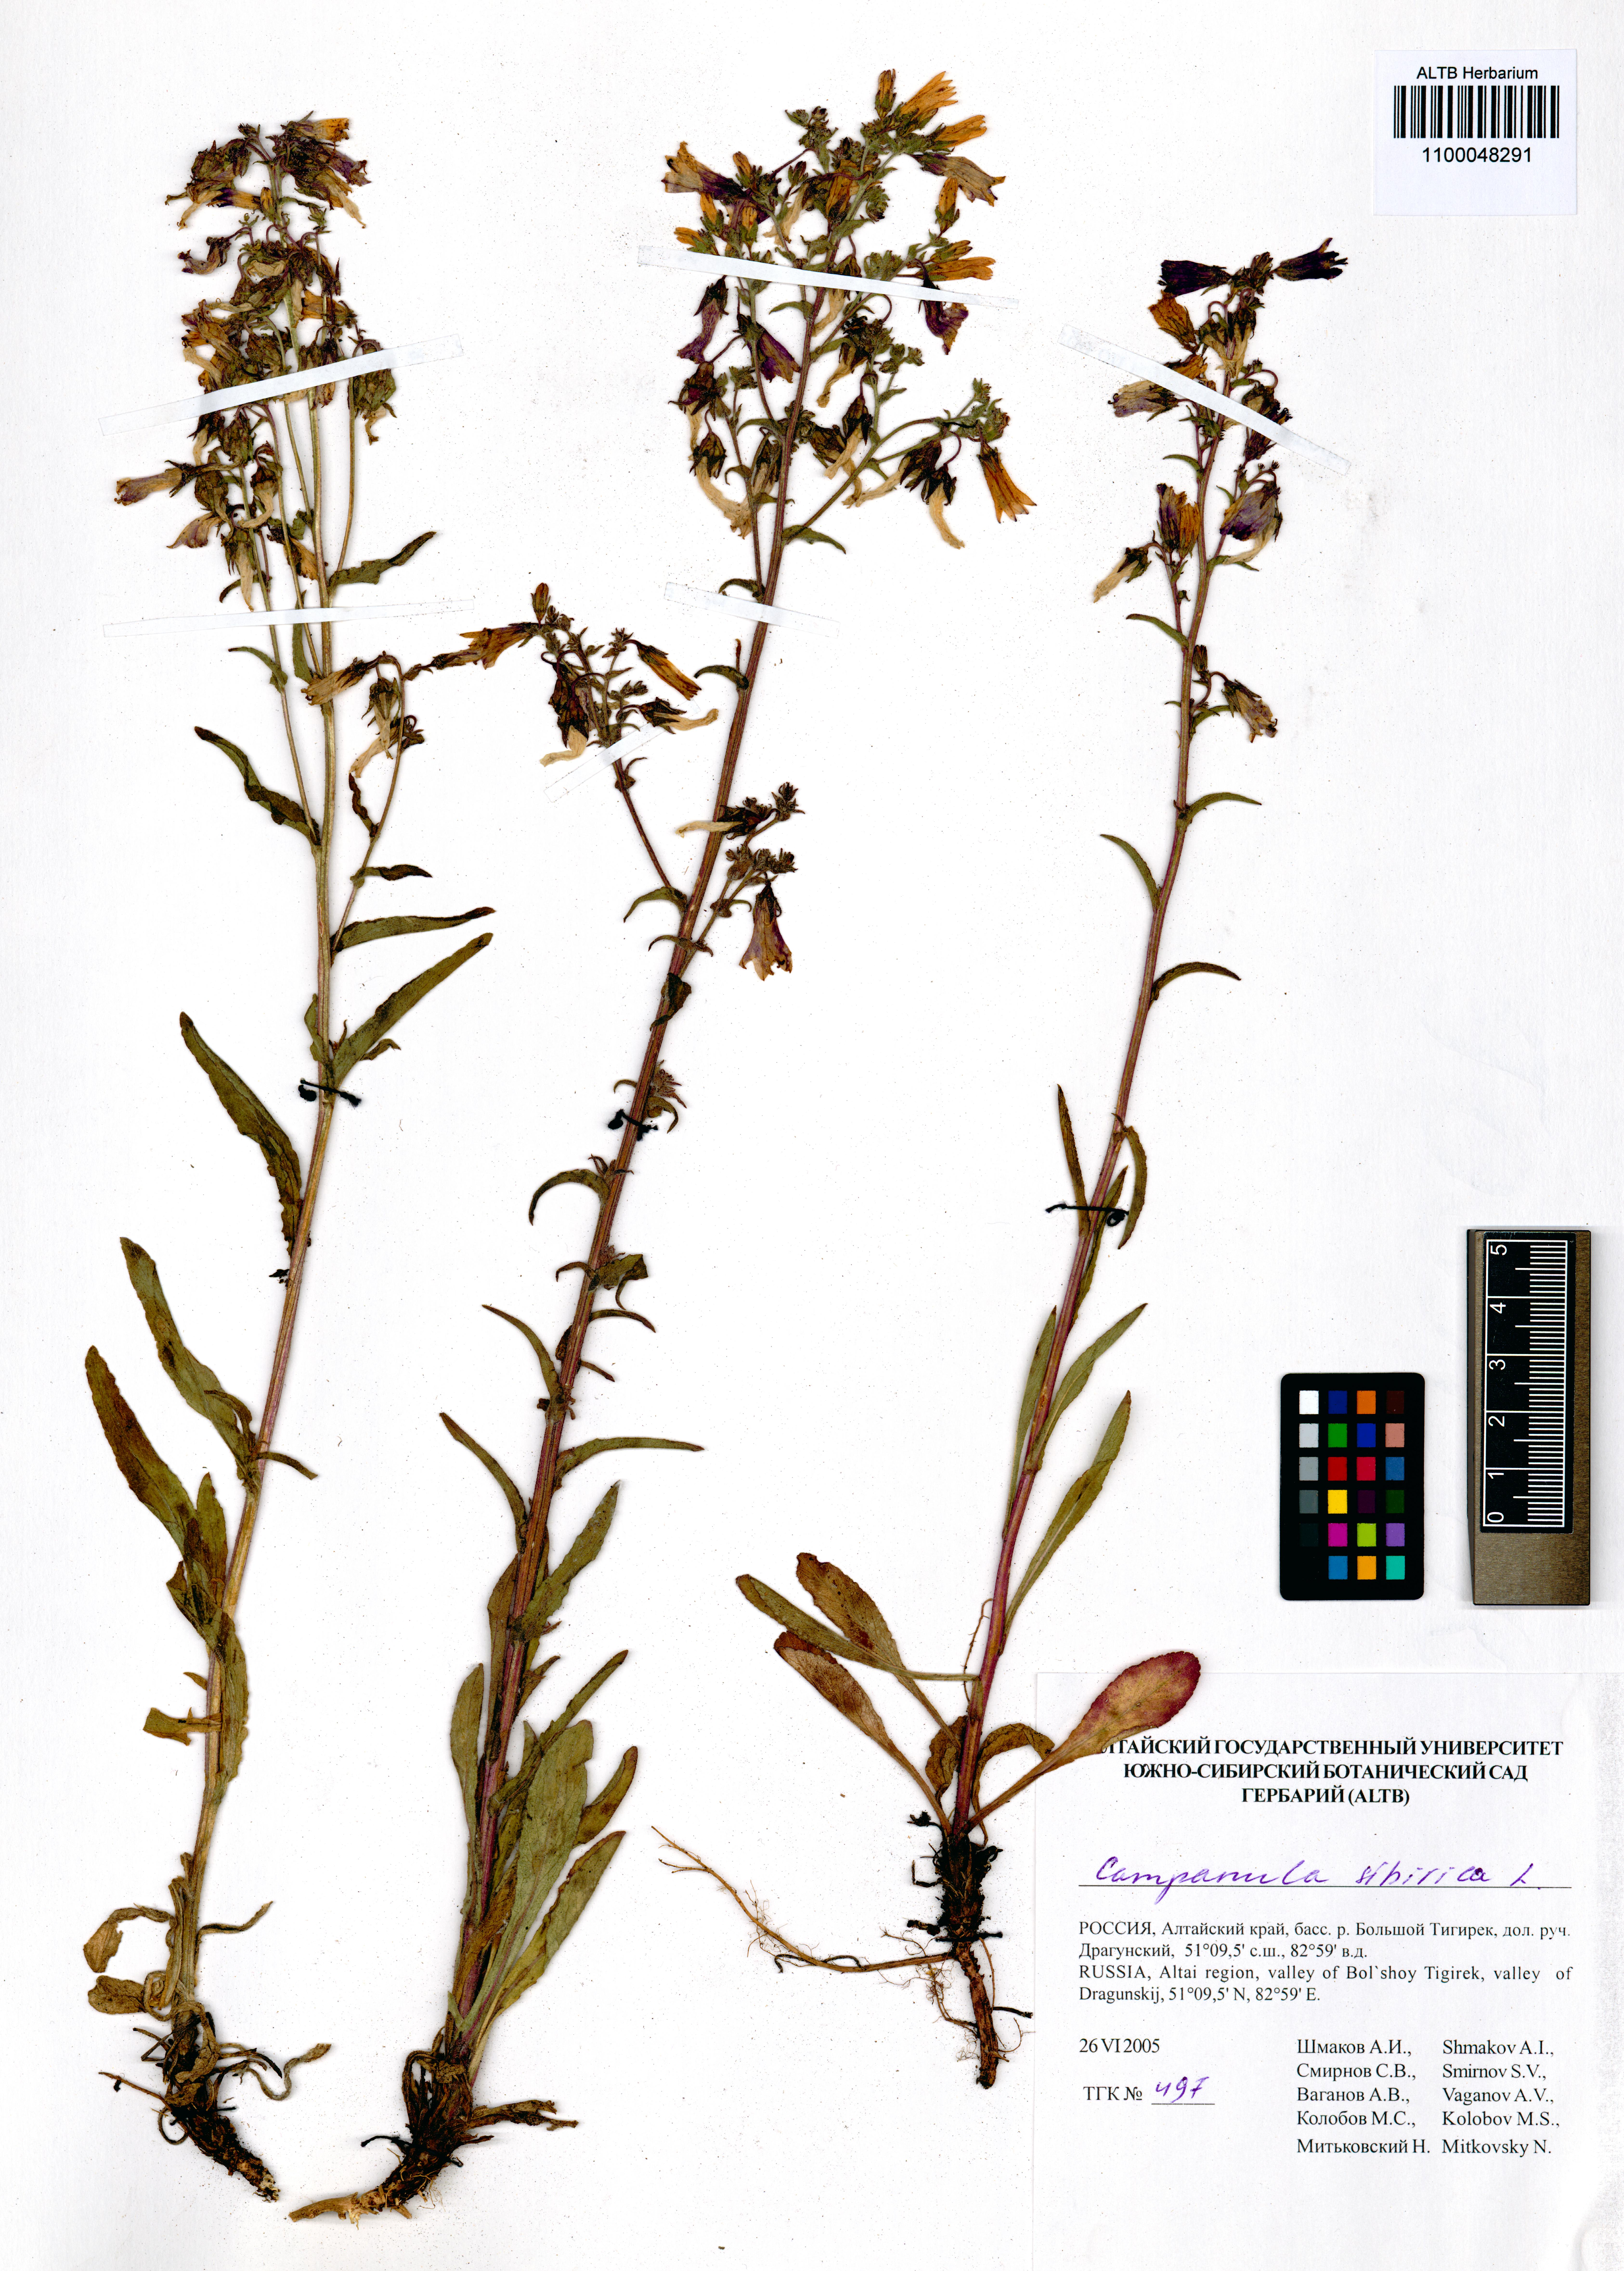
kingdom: Plantae
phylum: Tracheophyta
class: Magnoliopsida
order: Asterales
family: Campanulaceae
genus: Campanula
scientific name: Campanula sibirica
